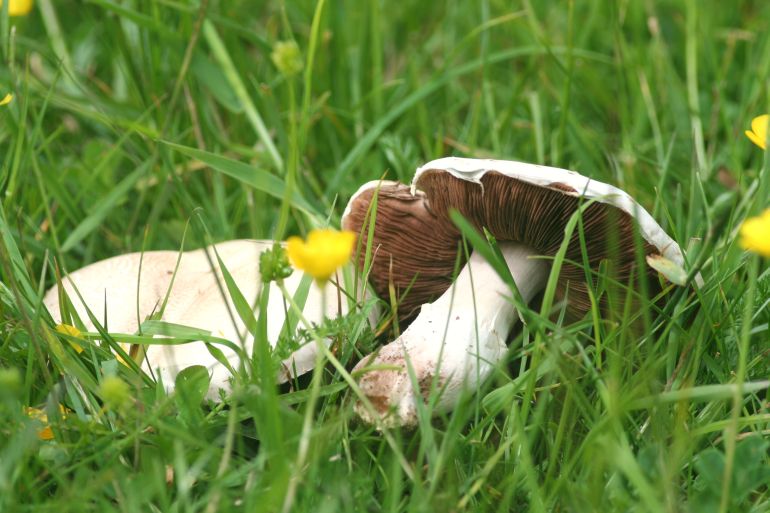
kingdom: Fungi
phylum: Basidiomycota
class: Agaricomycetes
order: Agaricales
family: Agaricaceae
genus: Agaricus
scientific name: Agaricus campestris
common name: mark-champignon
